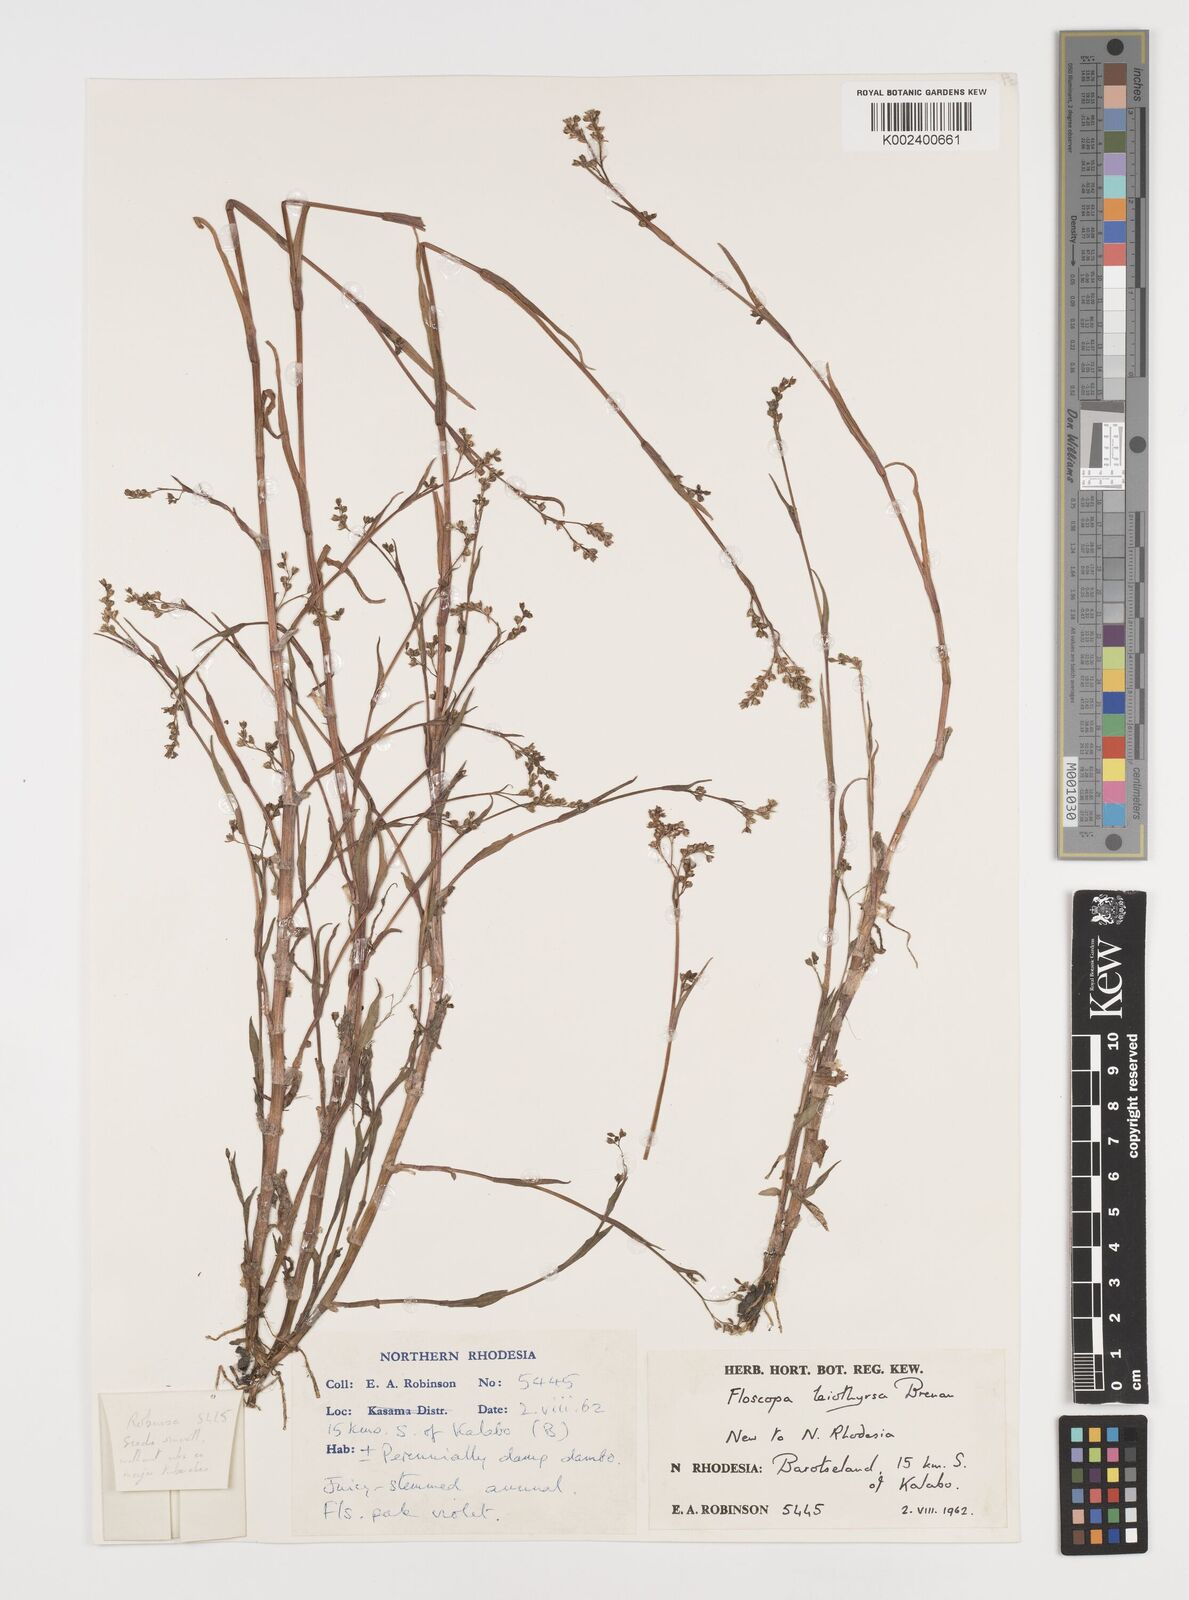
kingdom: Plantae
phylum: Tracheophyta
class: Liliopsida
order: Commelinales
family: Commelinaceae
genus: Floscopa
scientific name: Floscopa leiothyrsa
